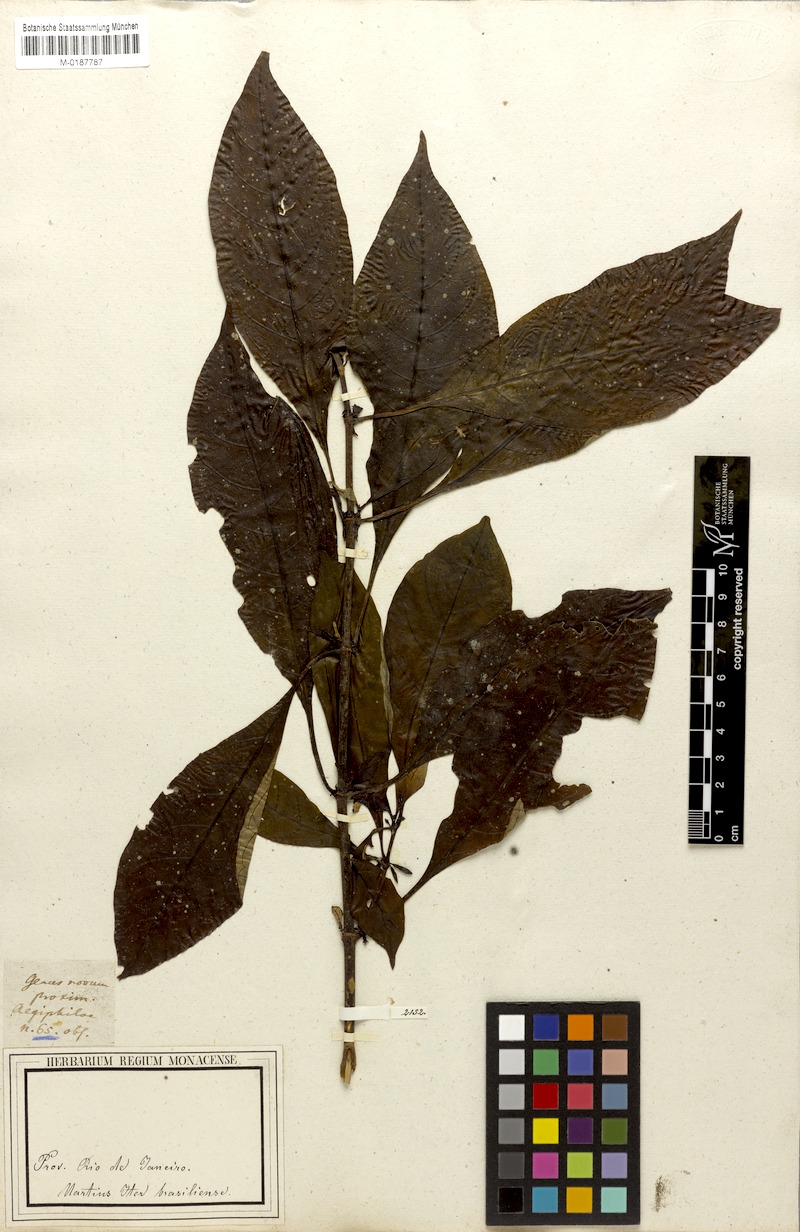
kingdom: Plantae
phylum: Tracheophyta
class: Magnoliopsida
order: Gentianales
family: Rubiaceae
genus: Hoffmannia
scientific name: Hoffmannia peckii
